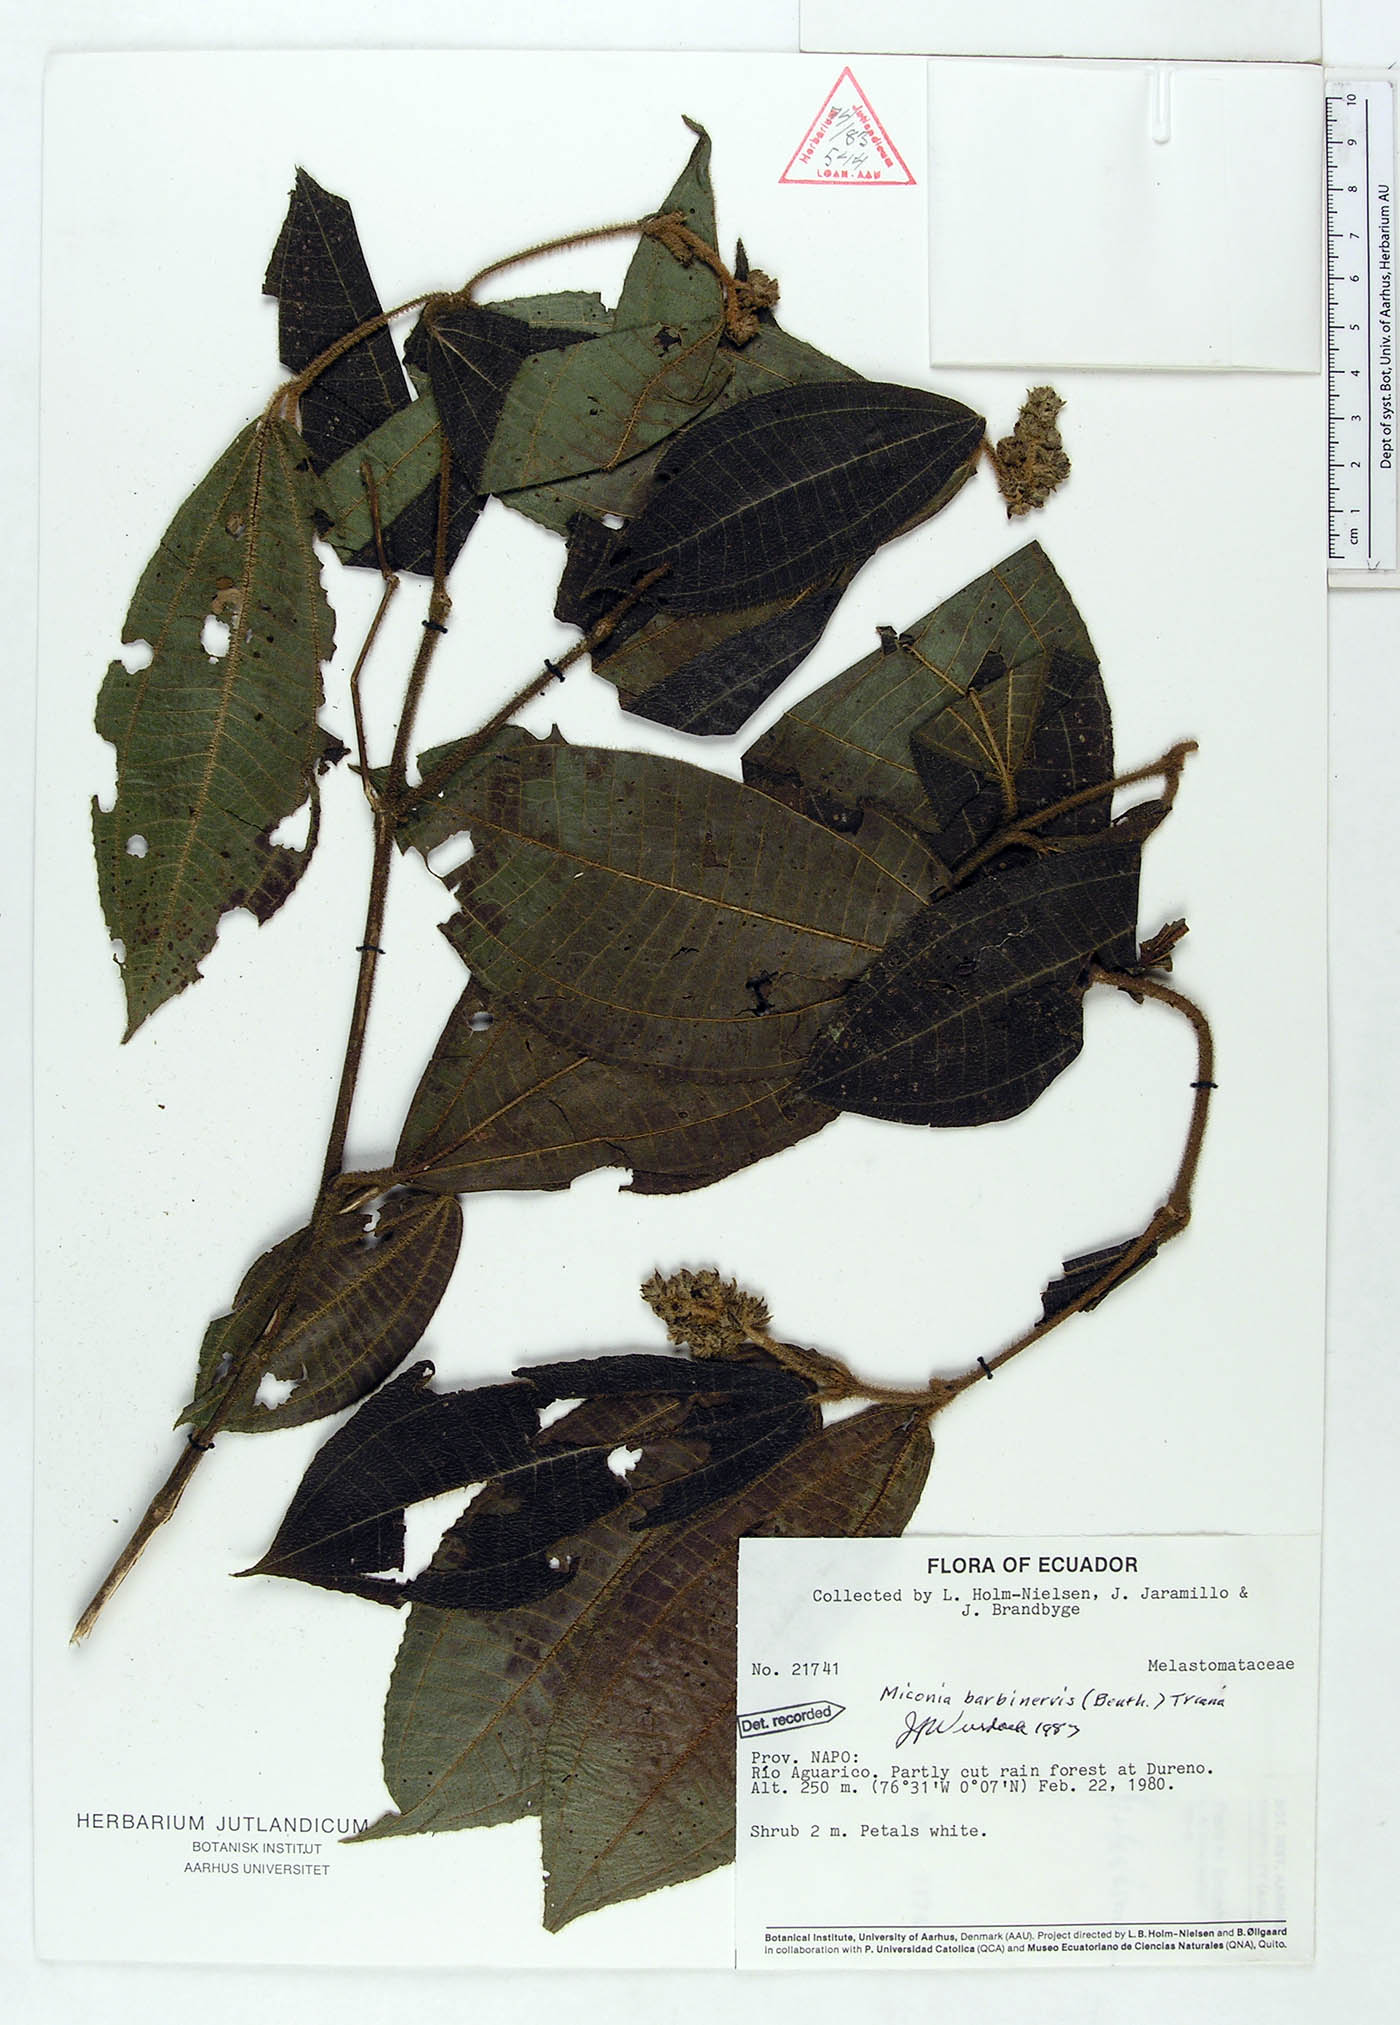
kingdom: Plantae
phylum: Tracheophyta
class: Magnoliopsida
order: Myrtales
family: Melastomataceae
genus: Miconia
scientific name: Miconia barbinervis
